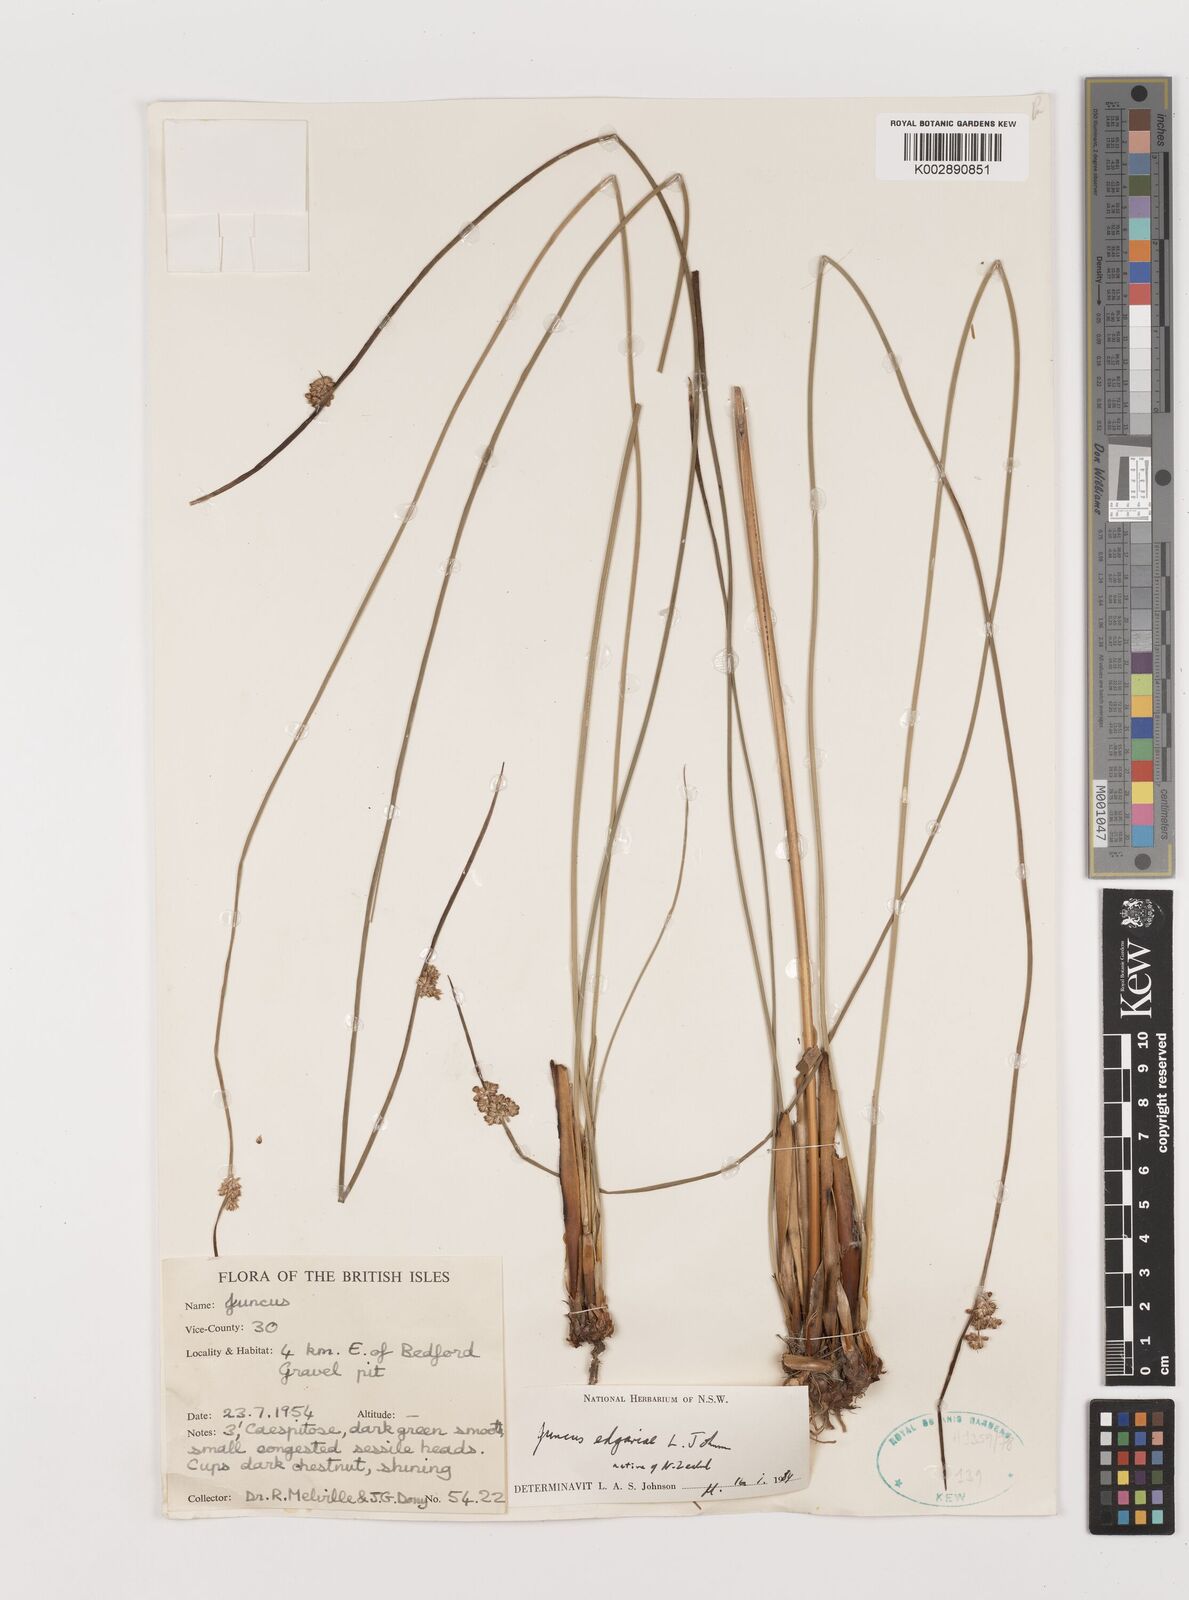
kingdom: Plantae
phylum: Tracheophyta
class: Liliopsida
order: Poales
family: Juncaceae
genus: Juncus
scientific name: Juncus gregiflorus
